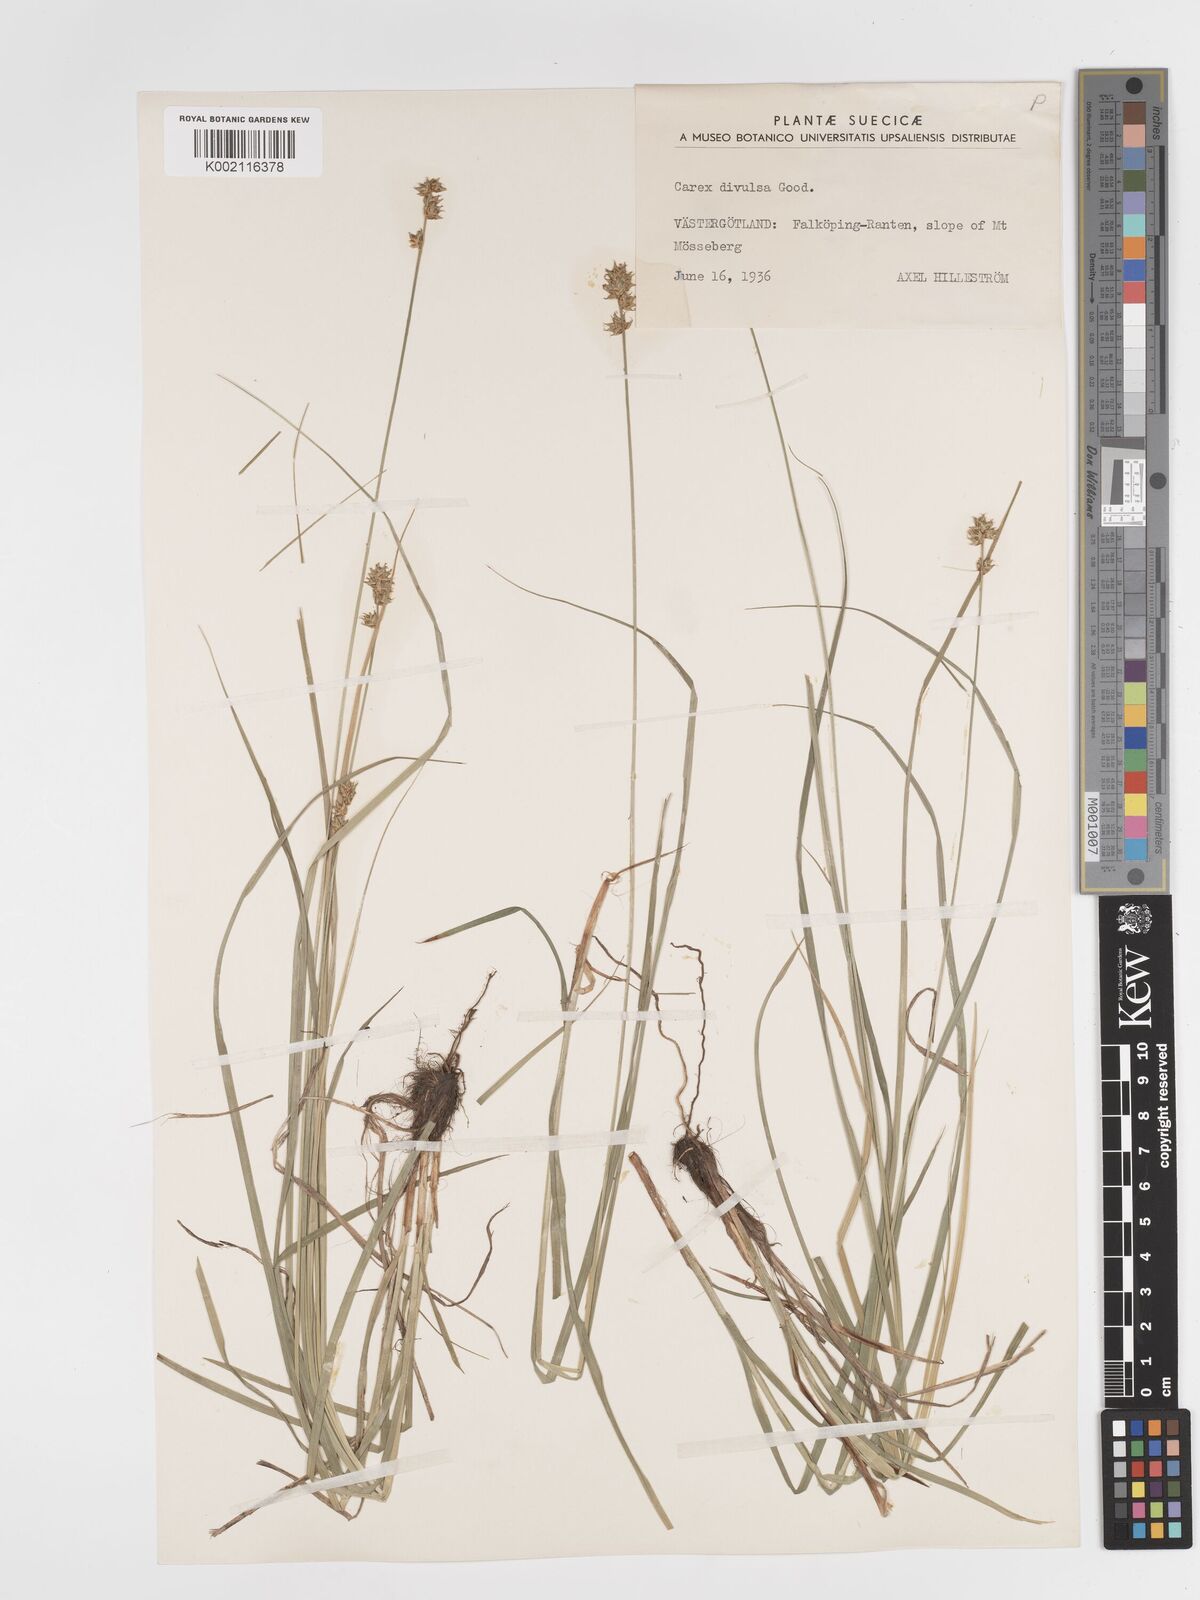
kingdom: Plantae
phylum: Tracheophyta
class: Liliopsida
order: Poales
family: Cyperaceae
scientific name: Cyperaceae
